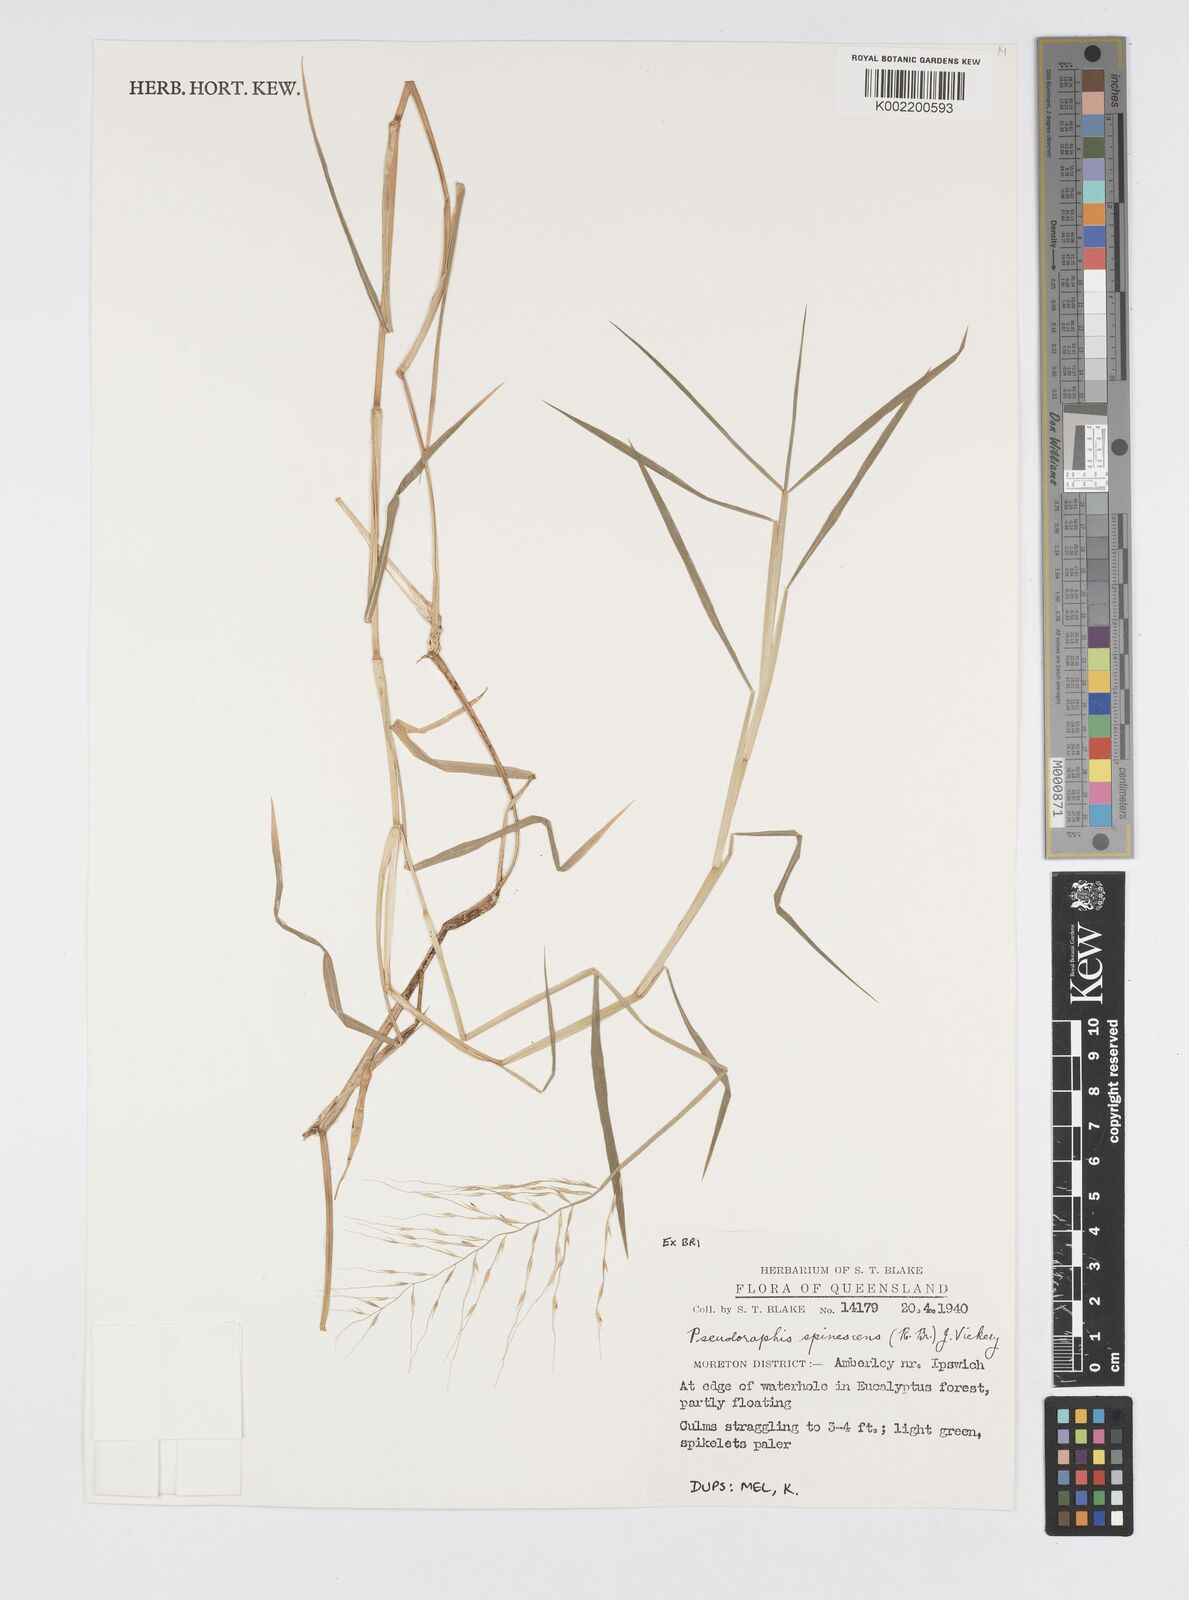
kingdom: Plantae
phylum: Tracheophyta
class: Liliopsida
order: Poales
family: Poaceae
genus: Pseudoraphis
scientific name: Pseudoraphis spinescens
